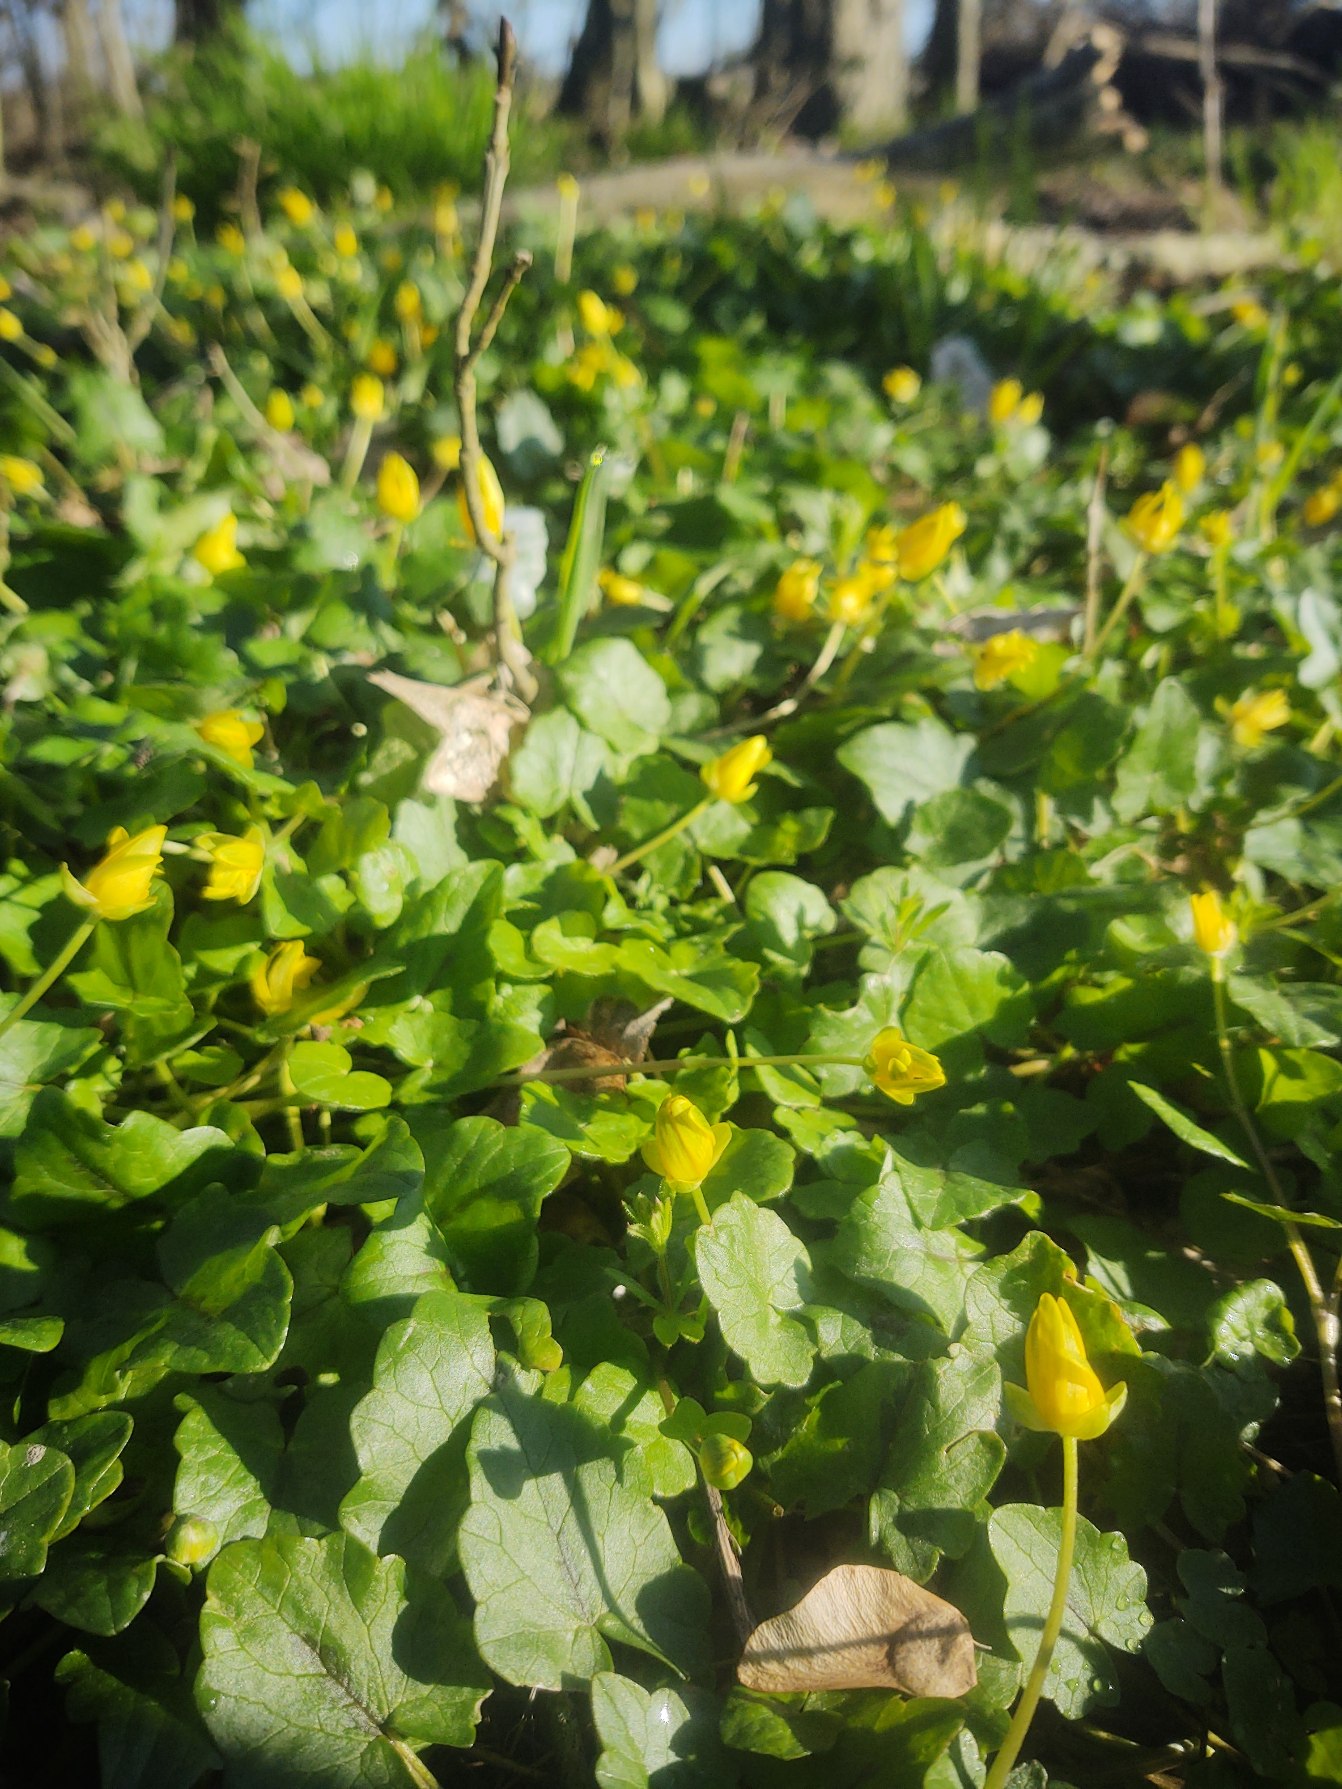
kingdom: Plantae
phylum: Tracheophyta
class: Magnoliopsida
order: Ranunculales
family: Ranunculaceae
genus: Ficaria
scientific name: Ficaria verna
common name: Vorterod
